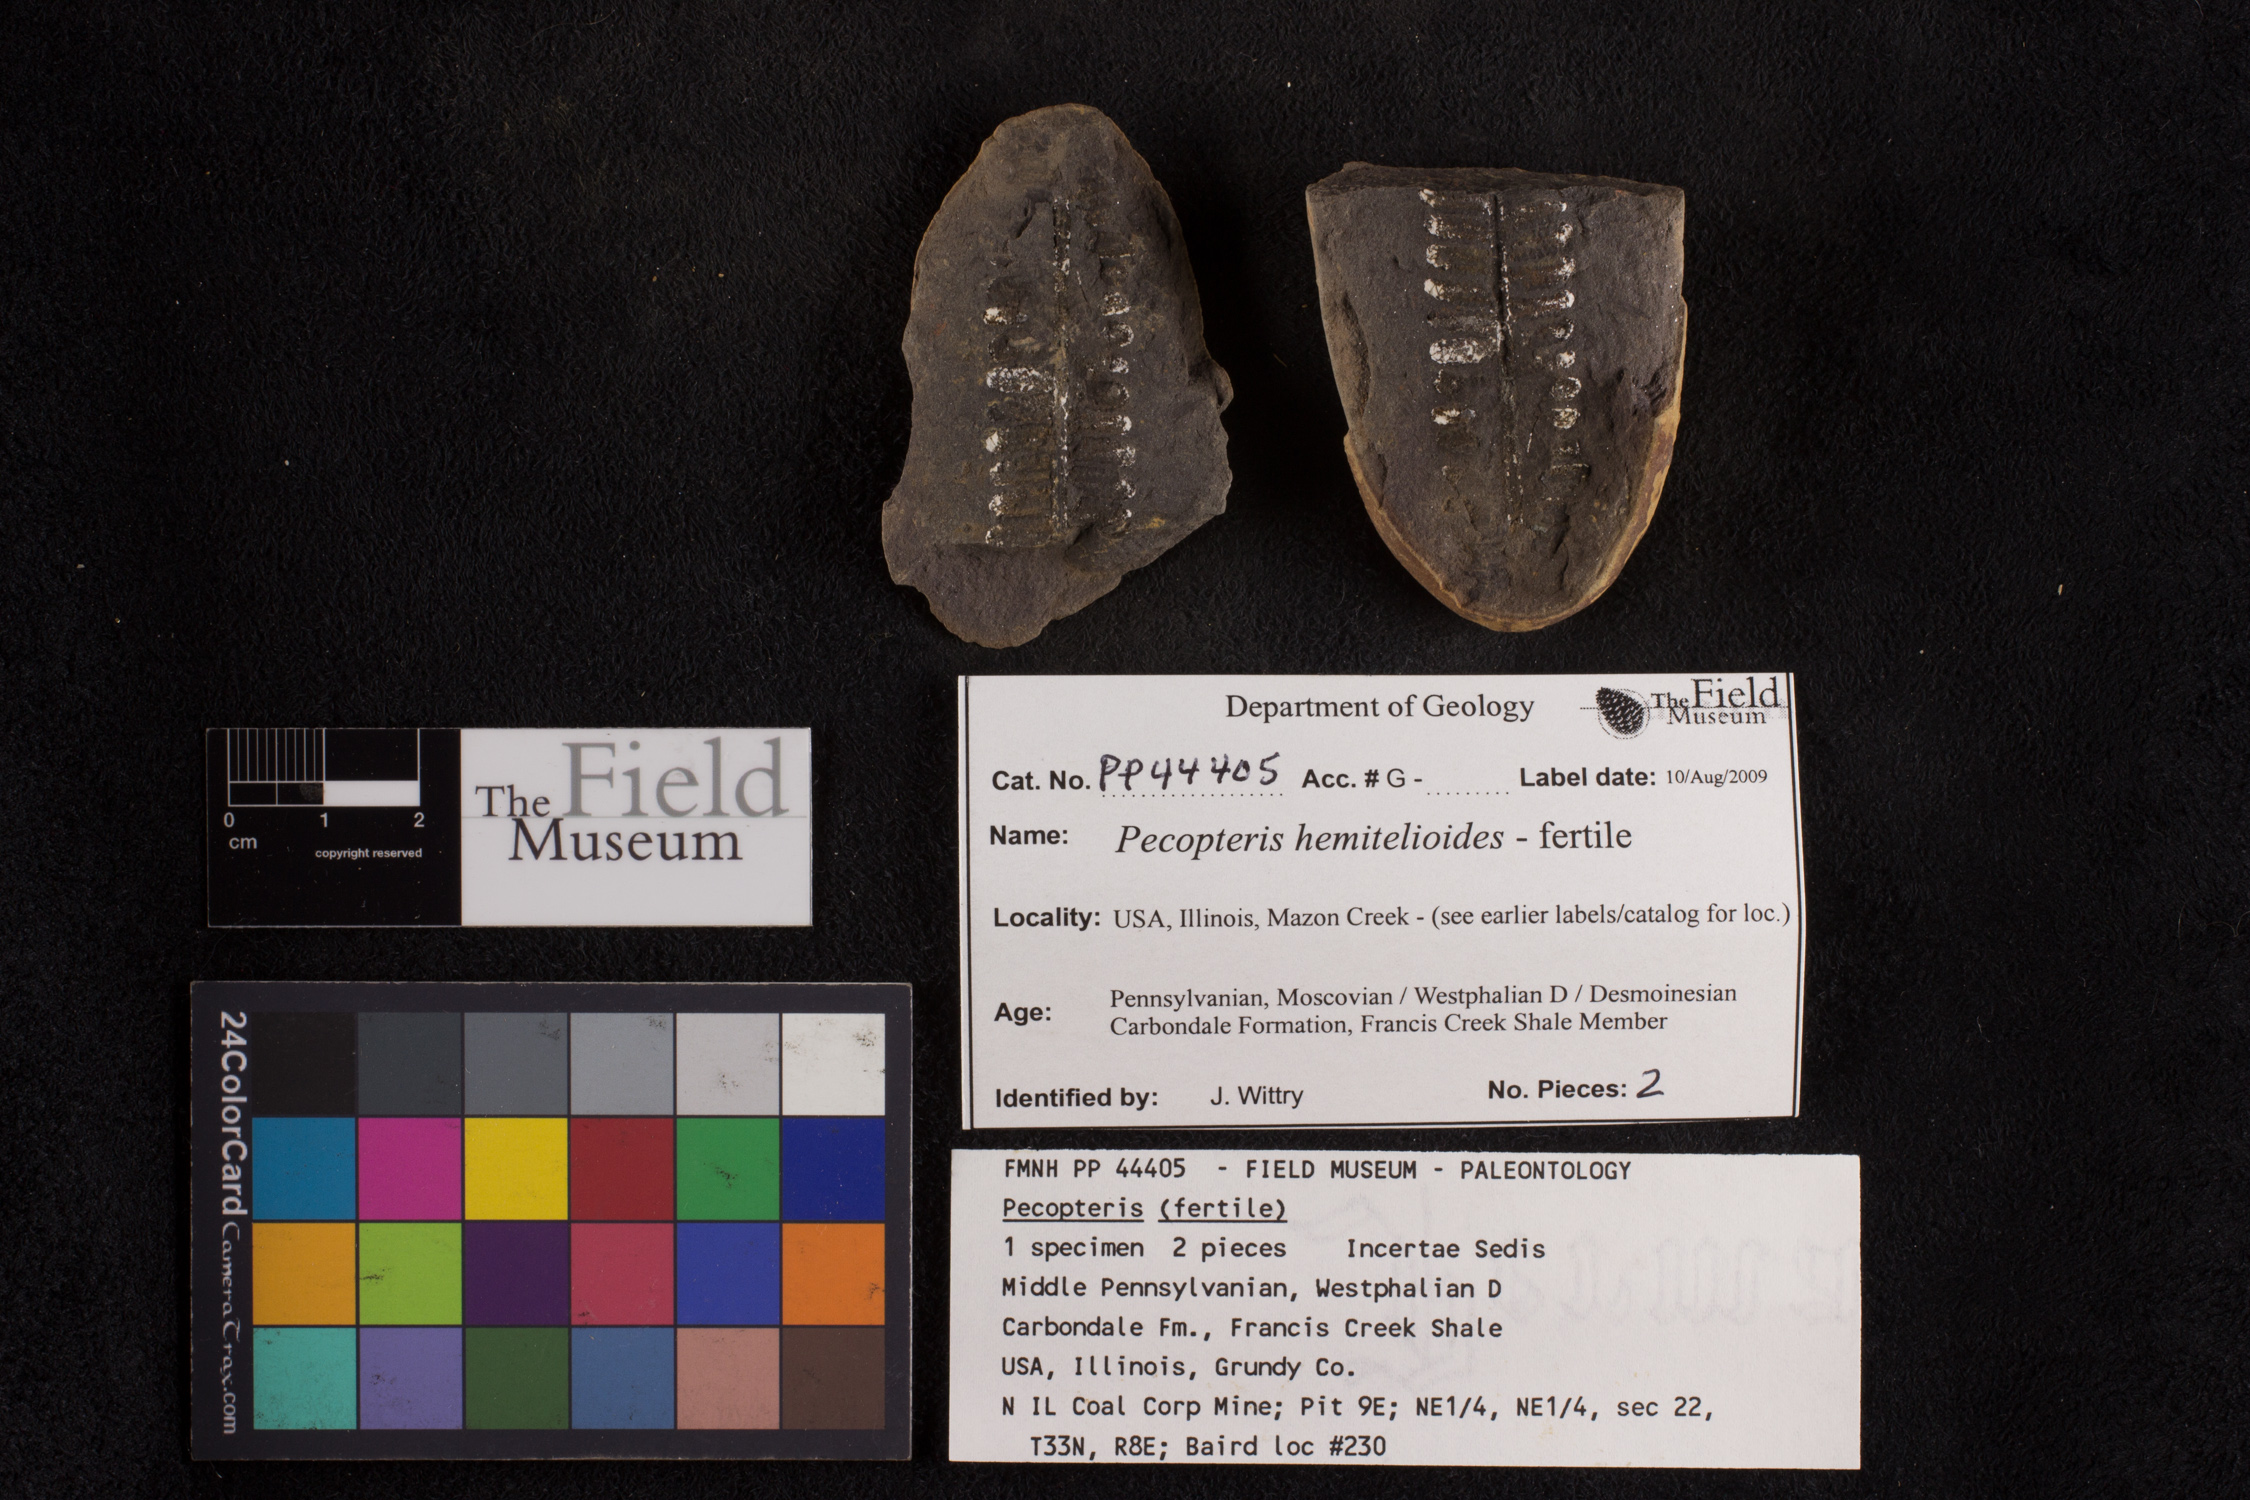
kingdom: Plantae
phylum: Tracheophyta
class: Polypodiopsida
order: Marattiales
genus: Cyathocarpus
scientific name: Cyathocarpus
